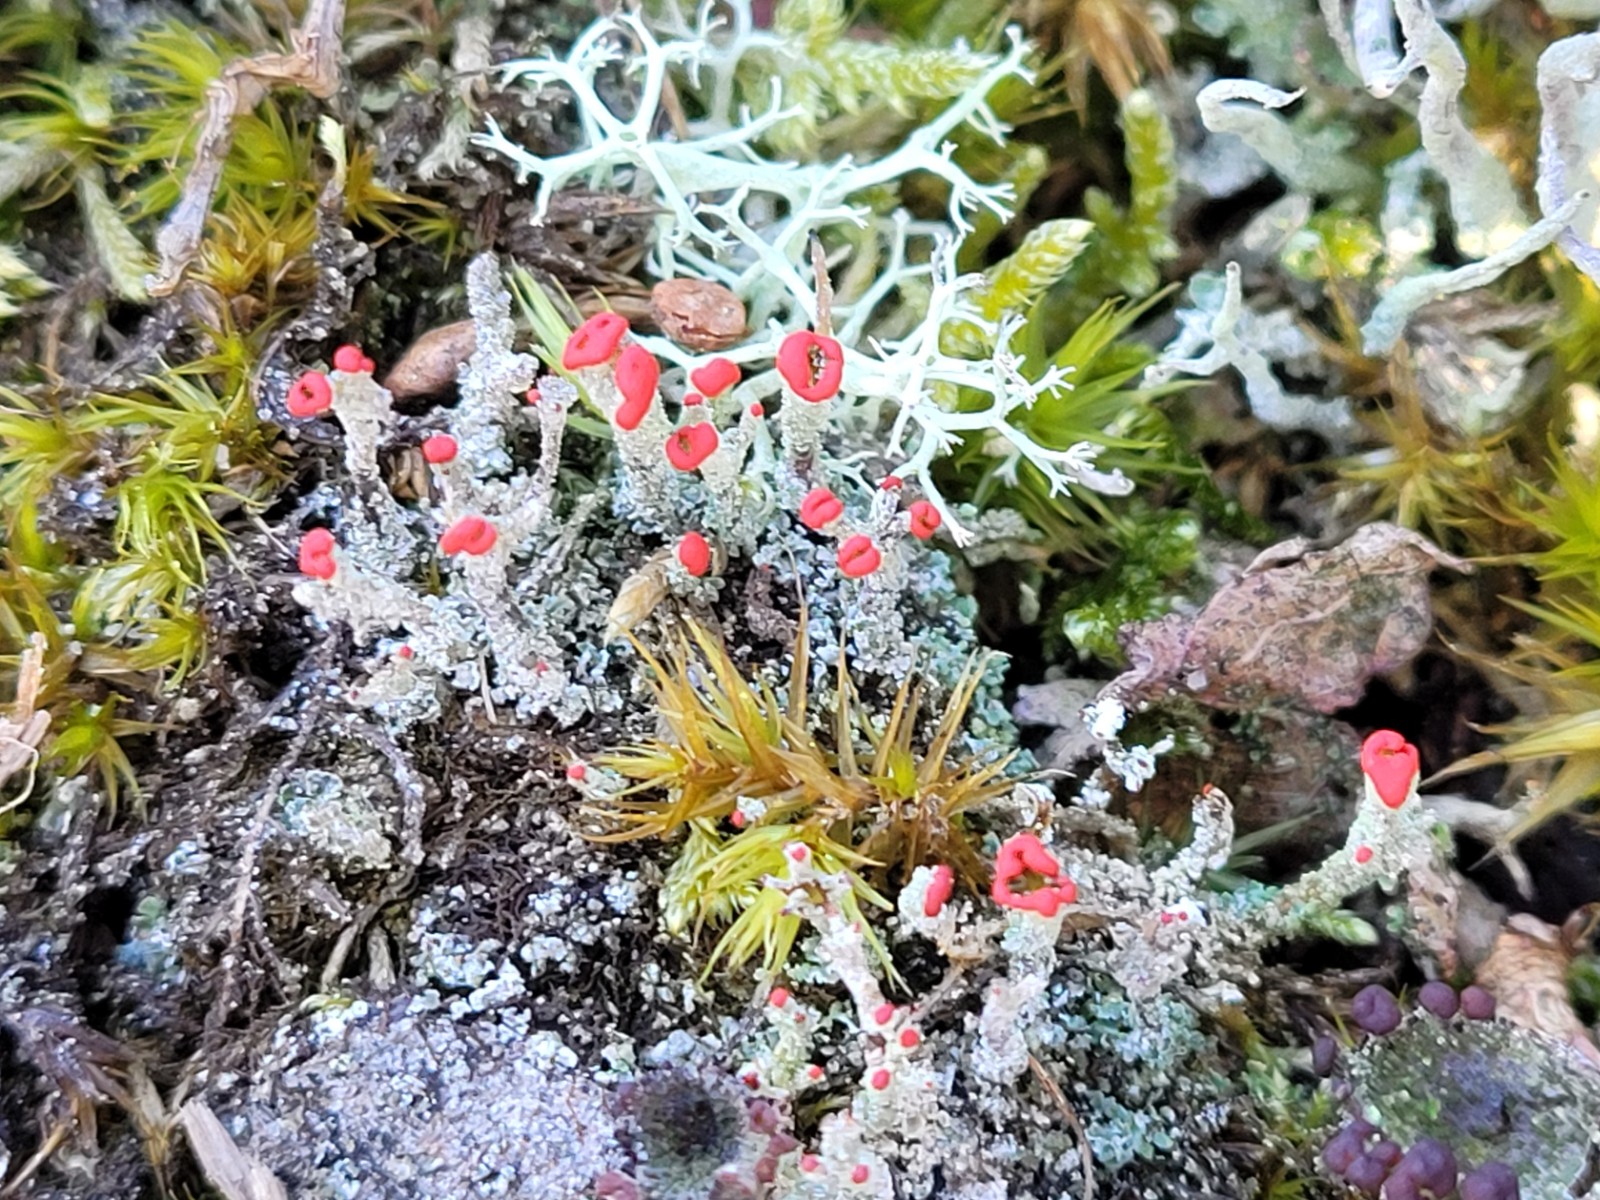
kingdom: Fungi
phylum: Ascomycota
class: Lecanoromycetes
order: Lecanorales
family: Cladoniaceae
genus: Cladonia
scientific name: Cladonia floerkeana
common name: lakrød bægerlav
